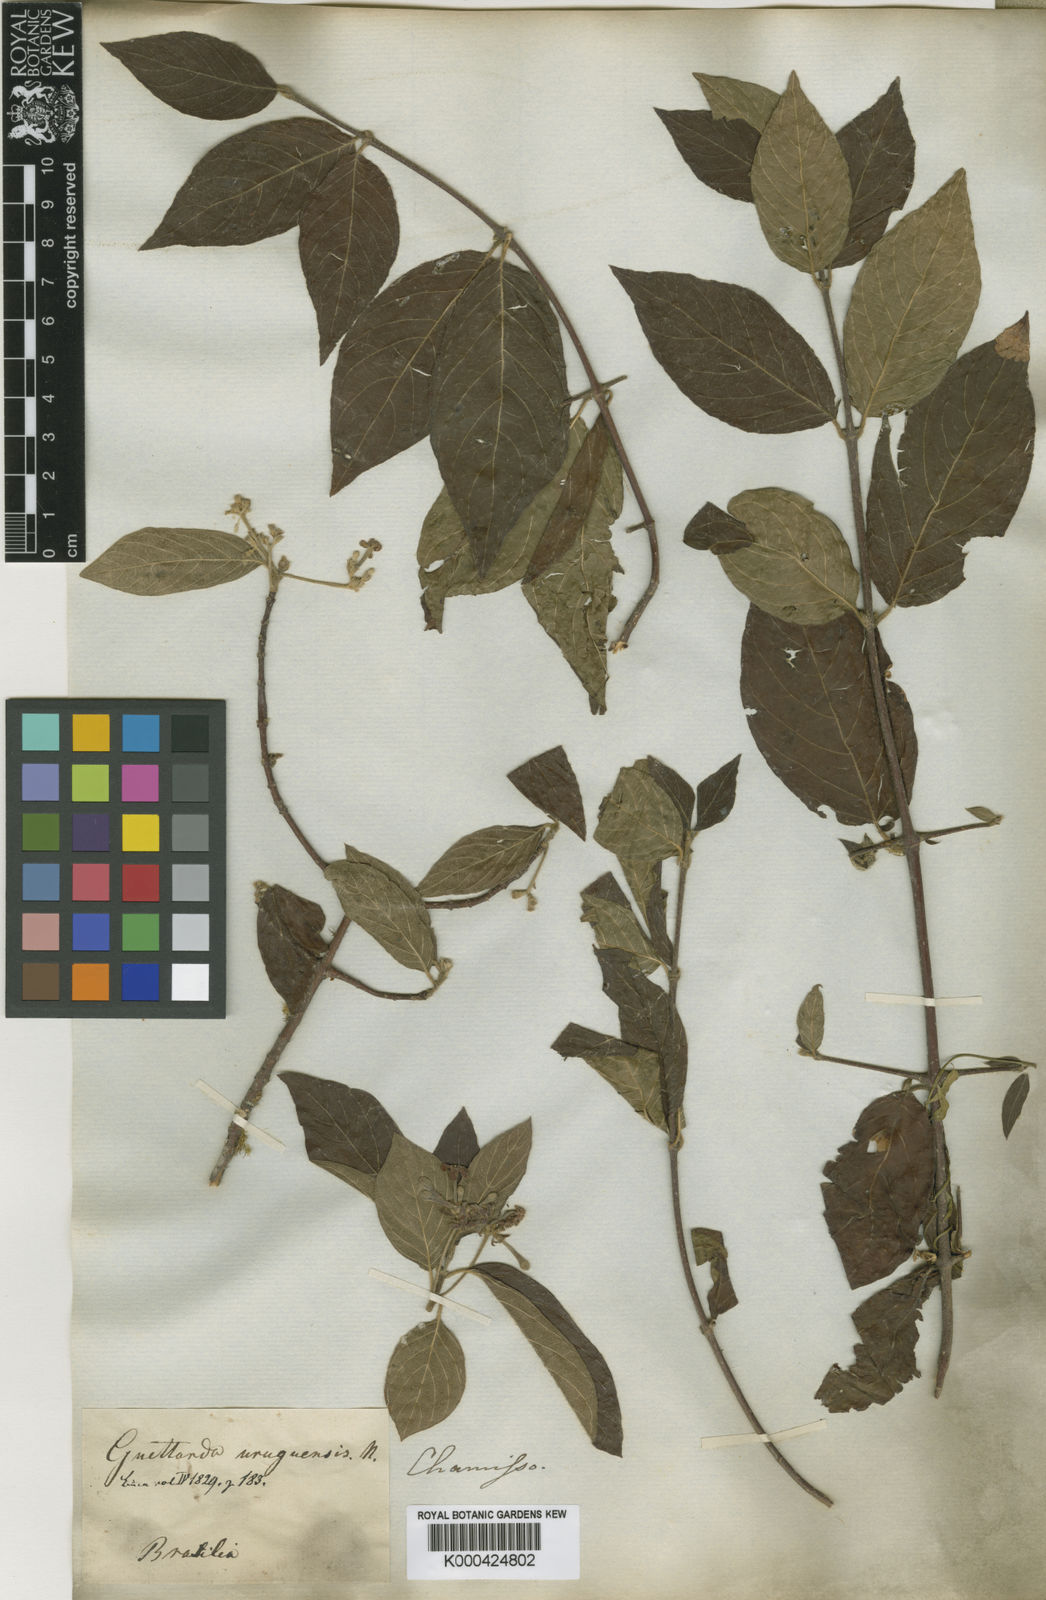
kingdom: Plantae
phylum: Tracheophyta
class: Magnoliopsida
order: Gentianales
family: Rubiaceae
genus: Guettarda
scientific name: Guettarda uruguensis
